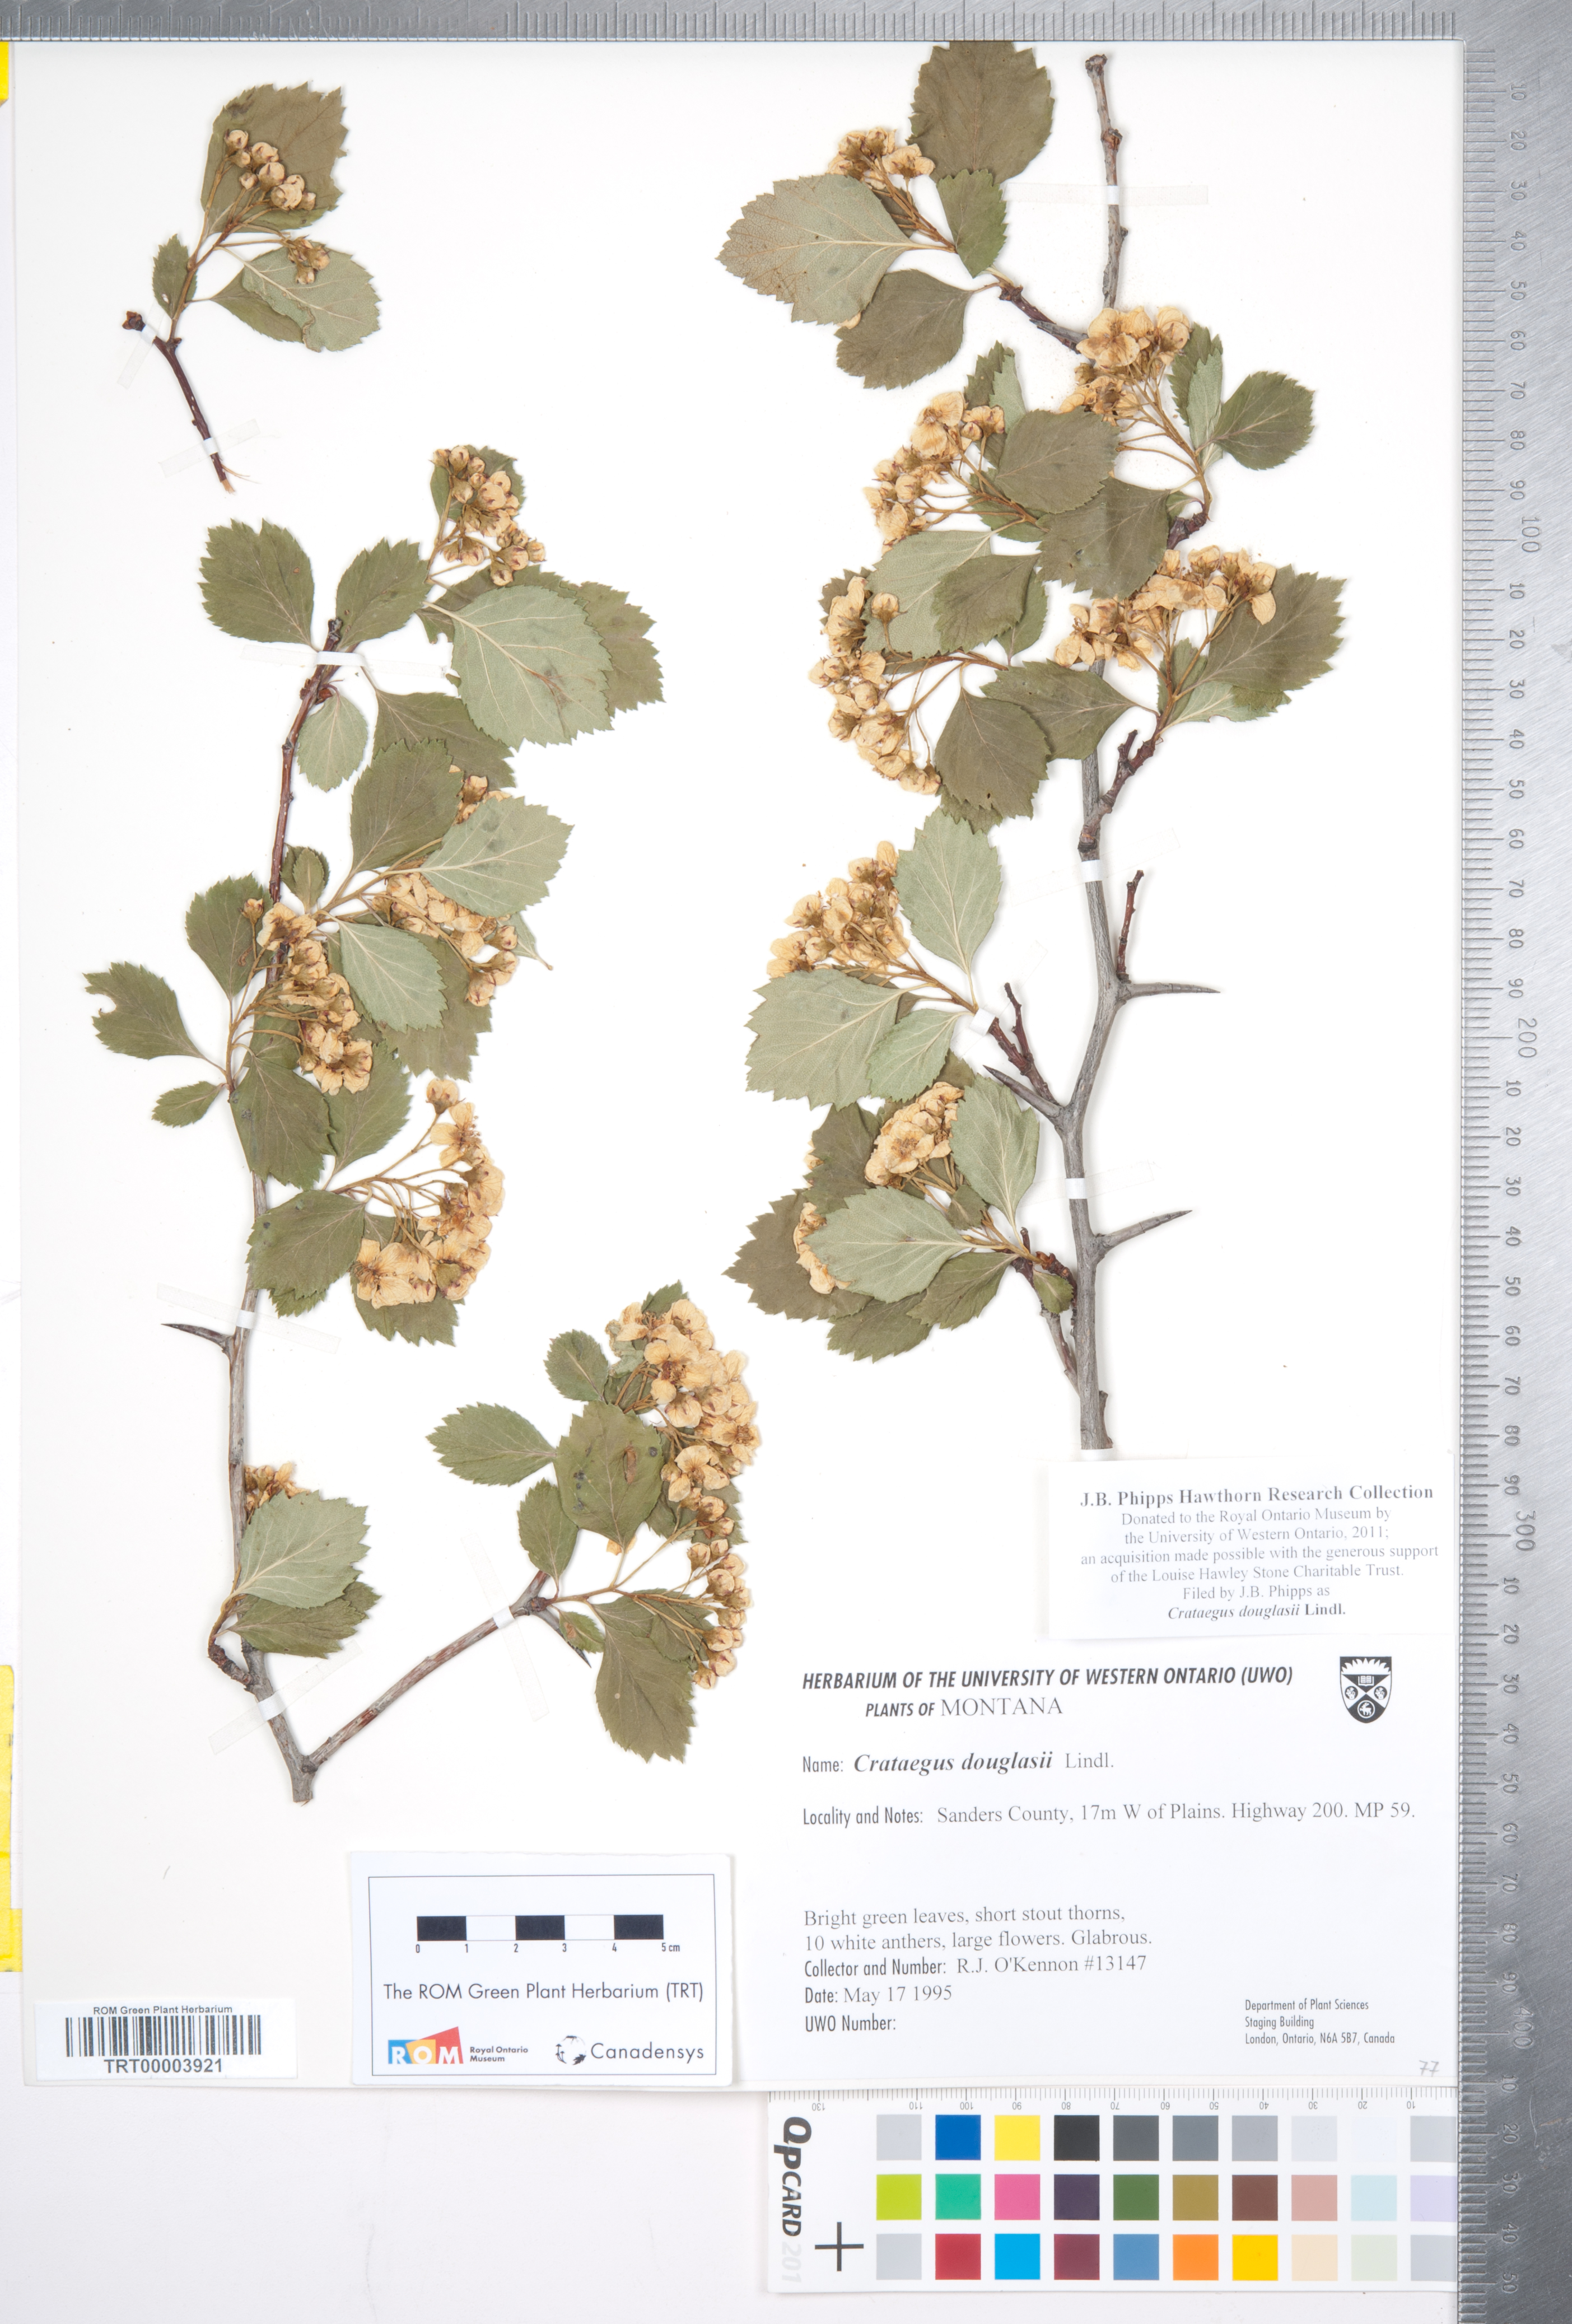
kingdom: Plantae
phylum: Tracheophyta
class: Magnoliopsida
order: Rosales
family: Rosaceae
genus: Crataegus
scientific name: Crataegus douglasii
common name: Black hawthorn
